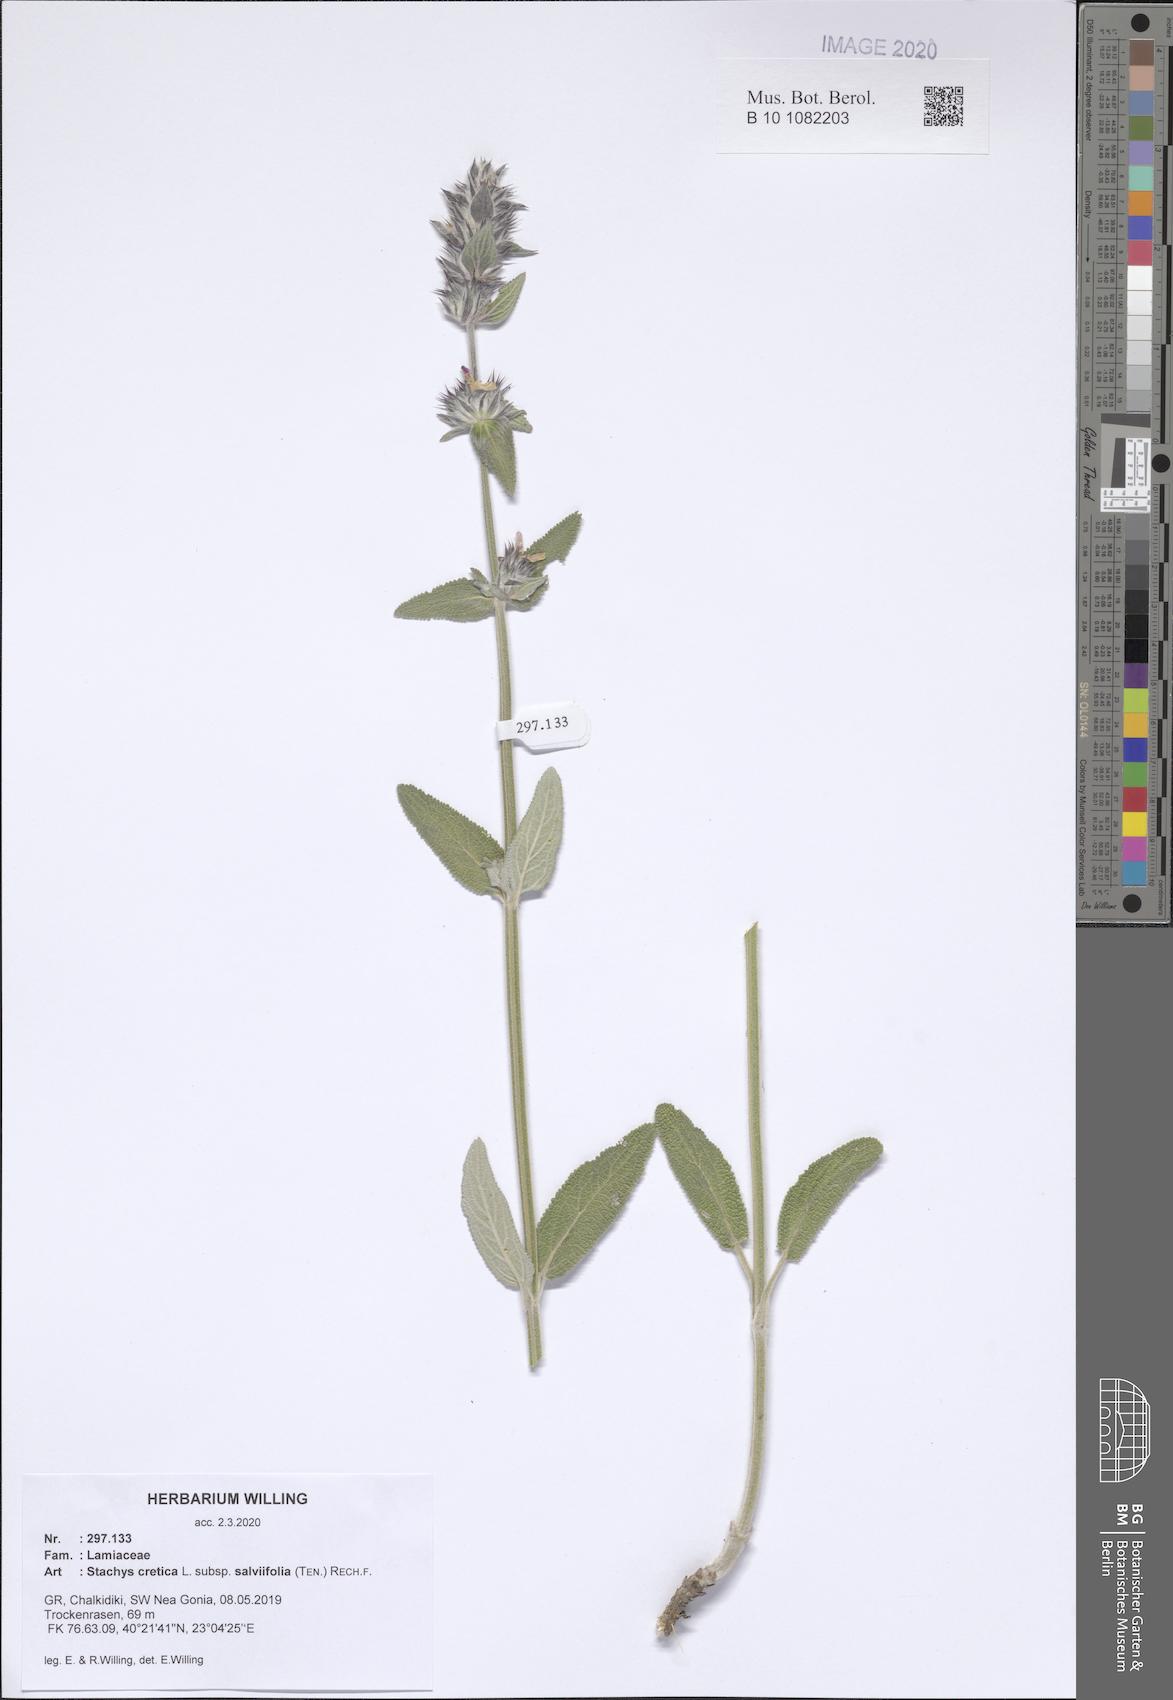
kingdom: Plantae
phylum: Tracheophyta
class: Magnoliopsida
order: Lamiales
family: Lamiaceae
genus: Stachys
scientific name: Stachys cretica
